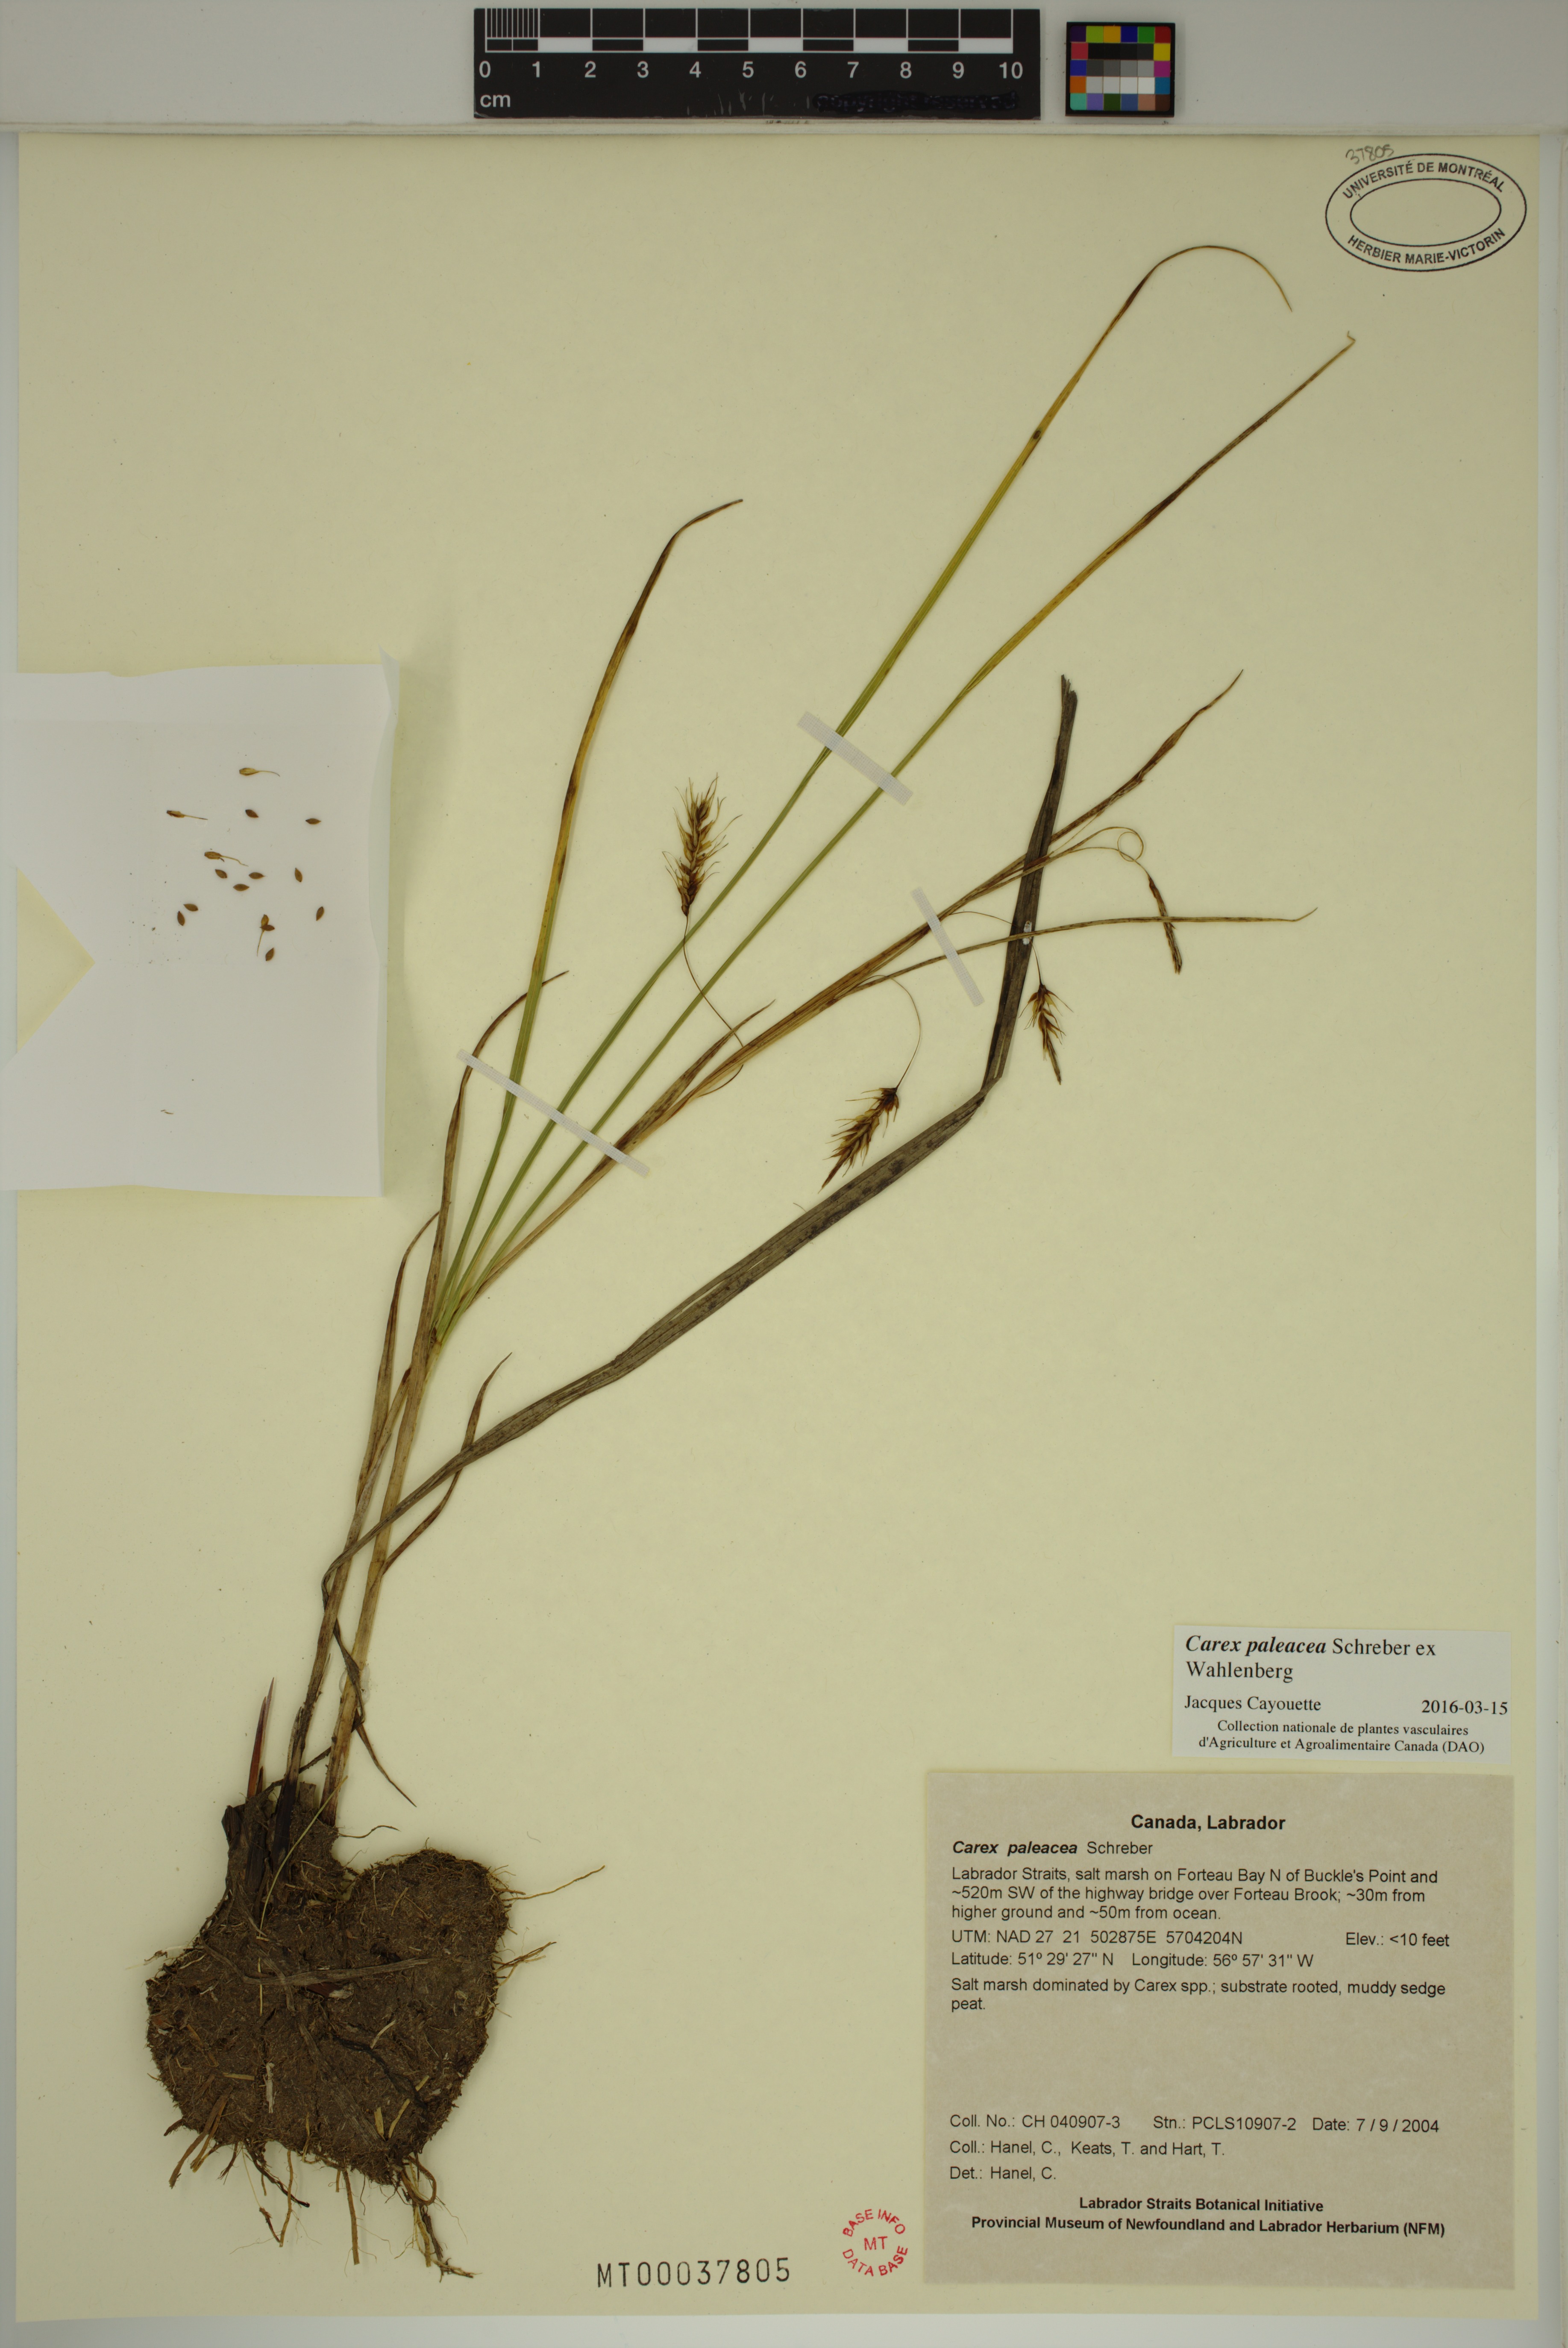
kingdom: Plantae
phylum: Tracheophyta
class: Liliopsida
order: Poales
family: Cyperaceae
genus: Carex
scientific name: Carex paleacea
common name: Chaffy sedge
